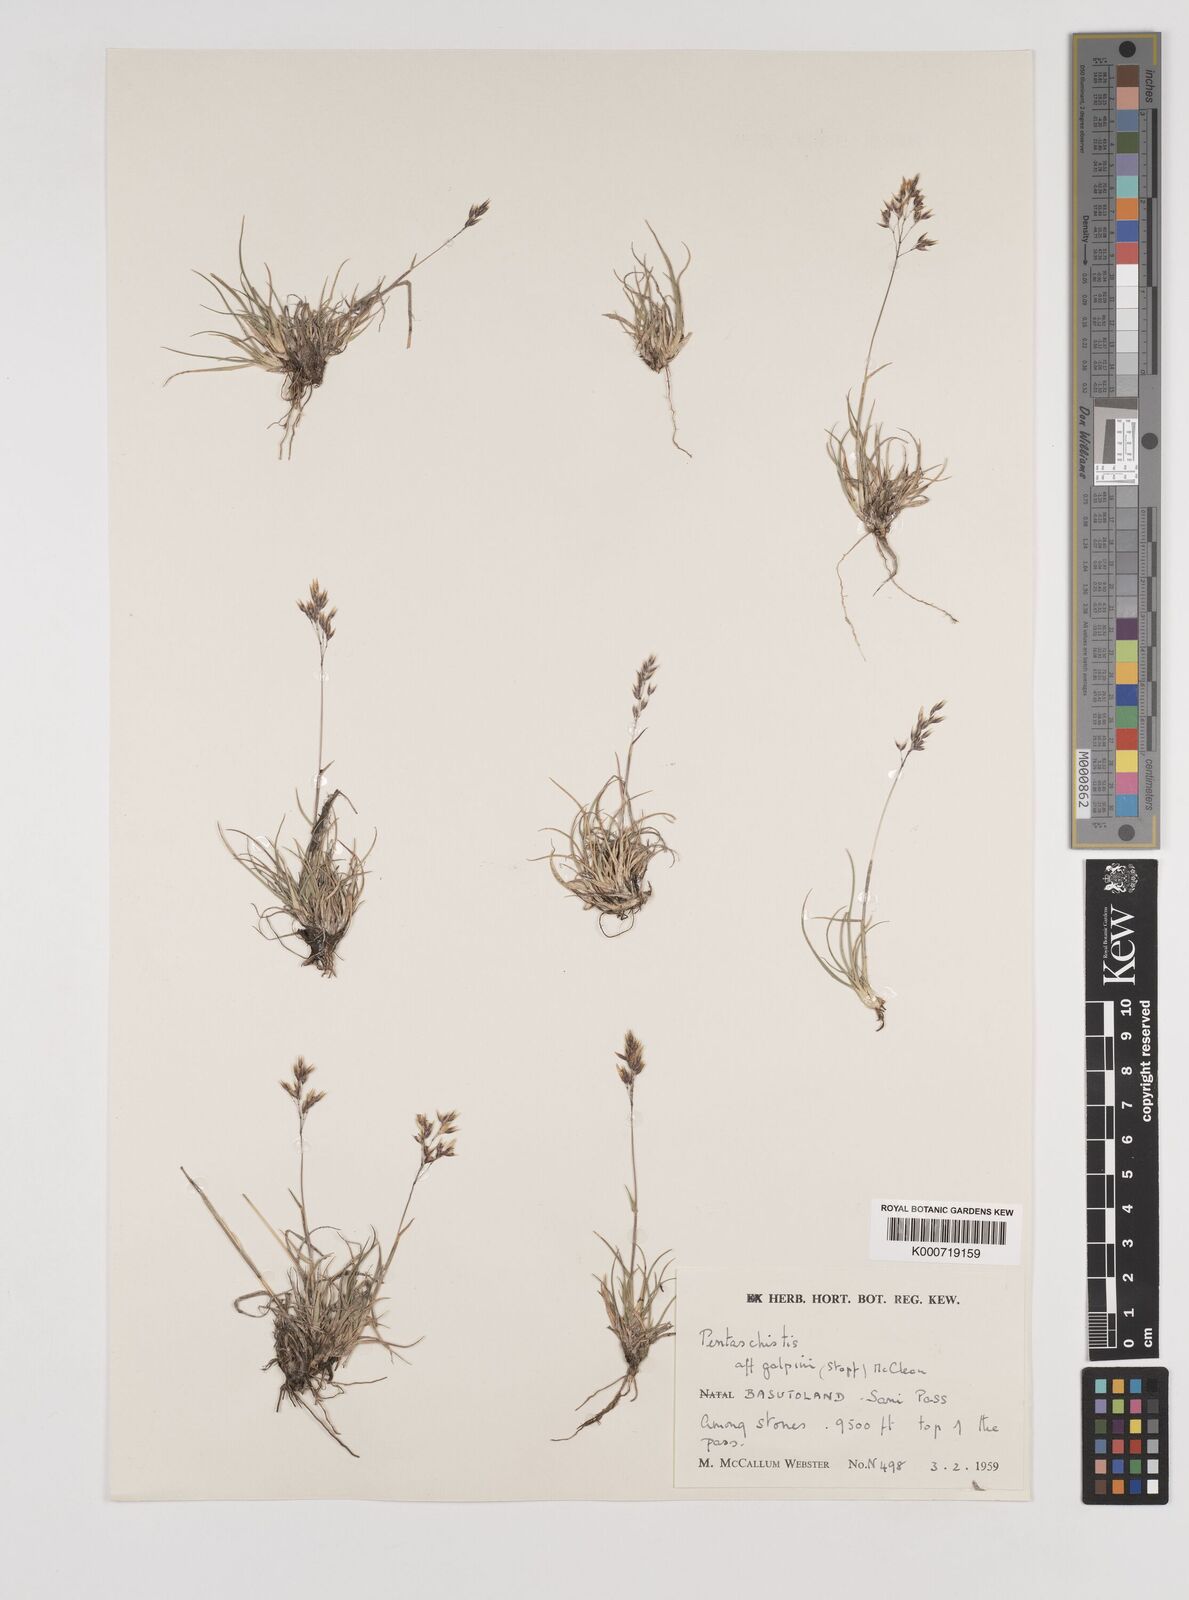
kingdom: Plantae
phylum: Tracheophyta
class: Liliopsida
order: Poales
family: Poaceae
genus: Pentameris
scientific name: Pentameris galpinii
